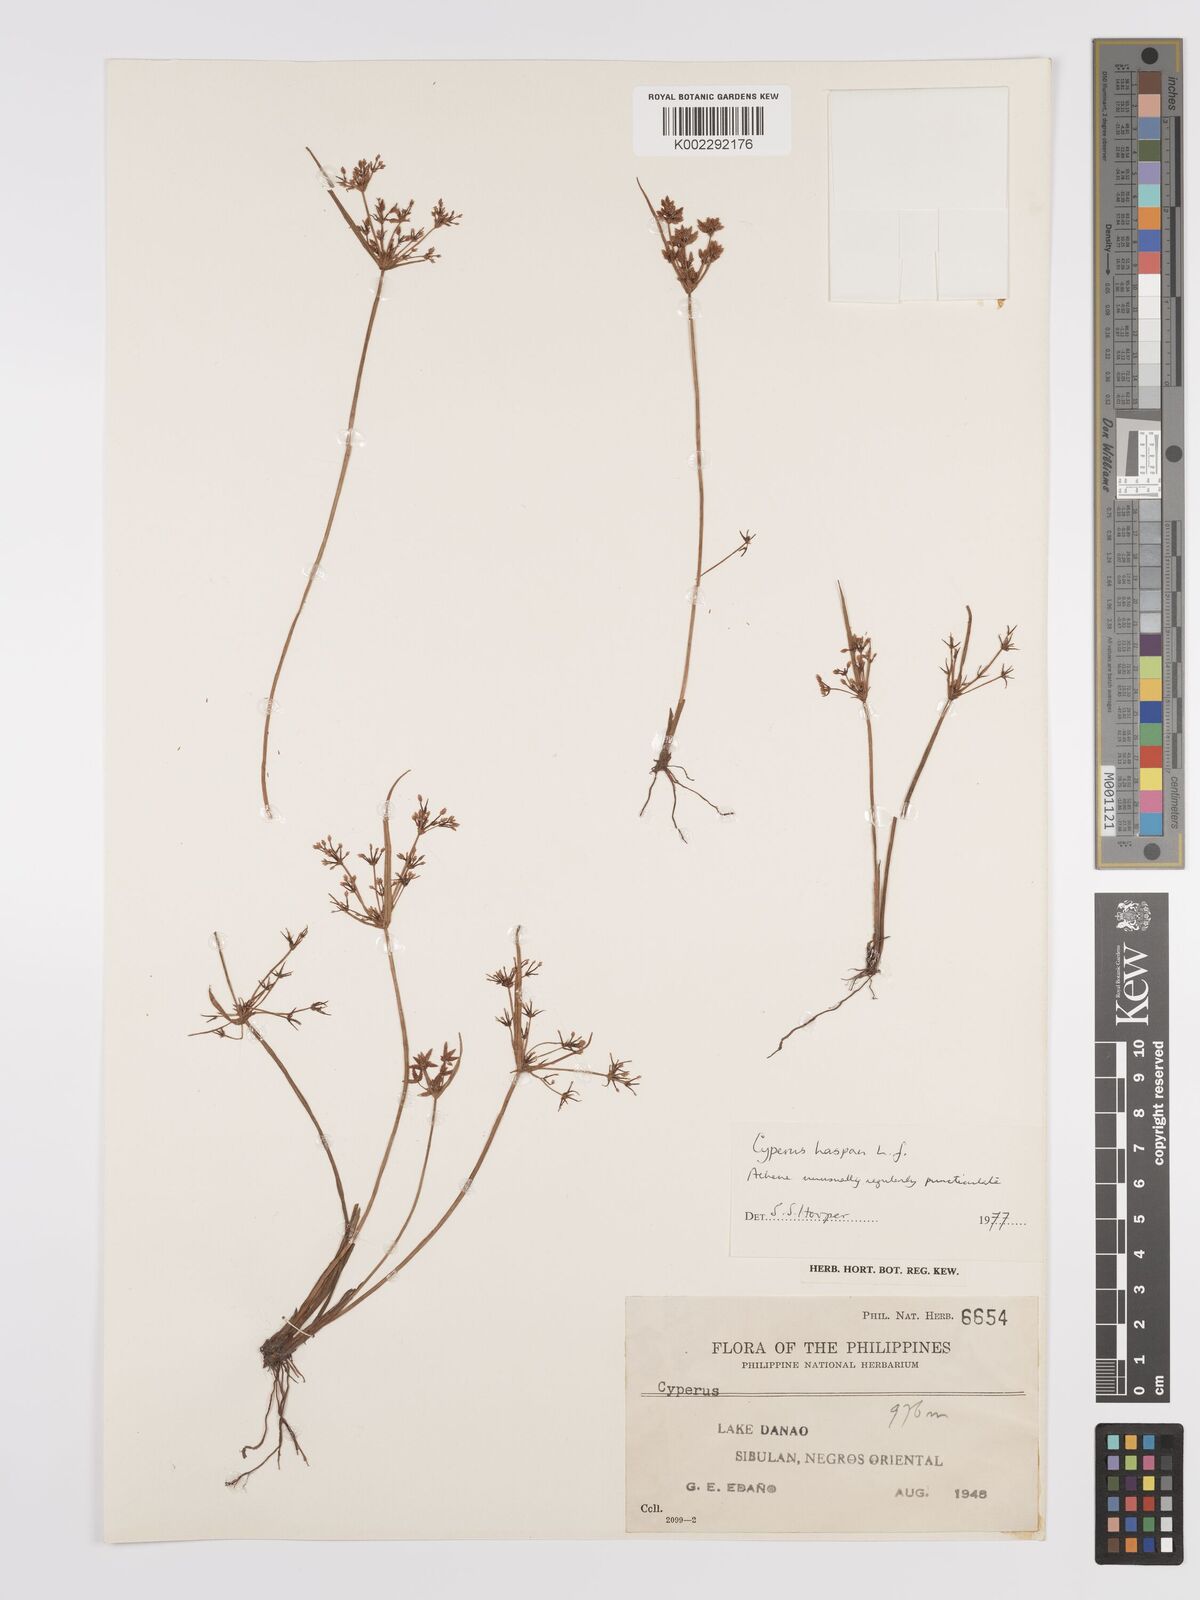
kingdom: Plantae
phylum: Tracheophyta
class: Liliopsida
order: Poales
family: Cyperaceae
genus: Cyperus
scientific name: Cyperus haspan
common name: Haspan flatsedge
